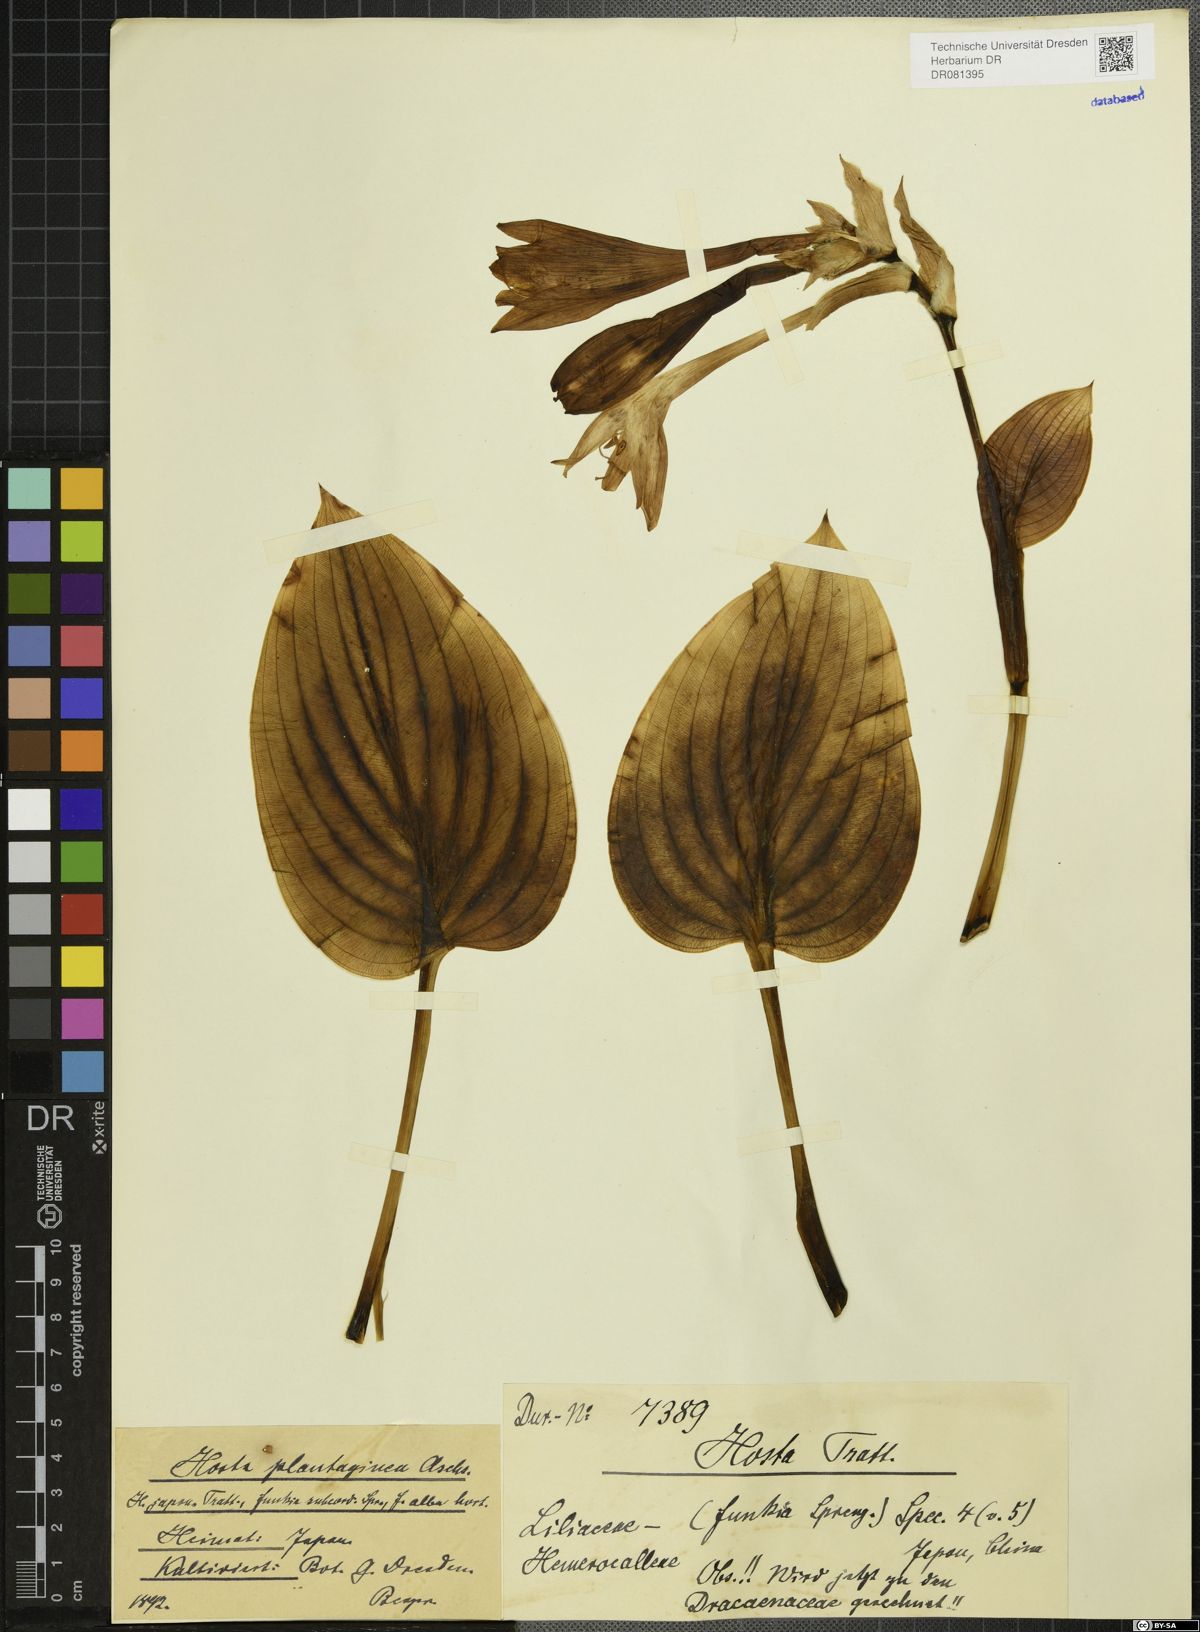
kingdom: Plantae
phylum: Tracheophyta
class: Liliopsida
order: Asparagales
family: Asparagaceae
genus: Hosta
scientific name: Hosta plantaginea
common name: August-lily
